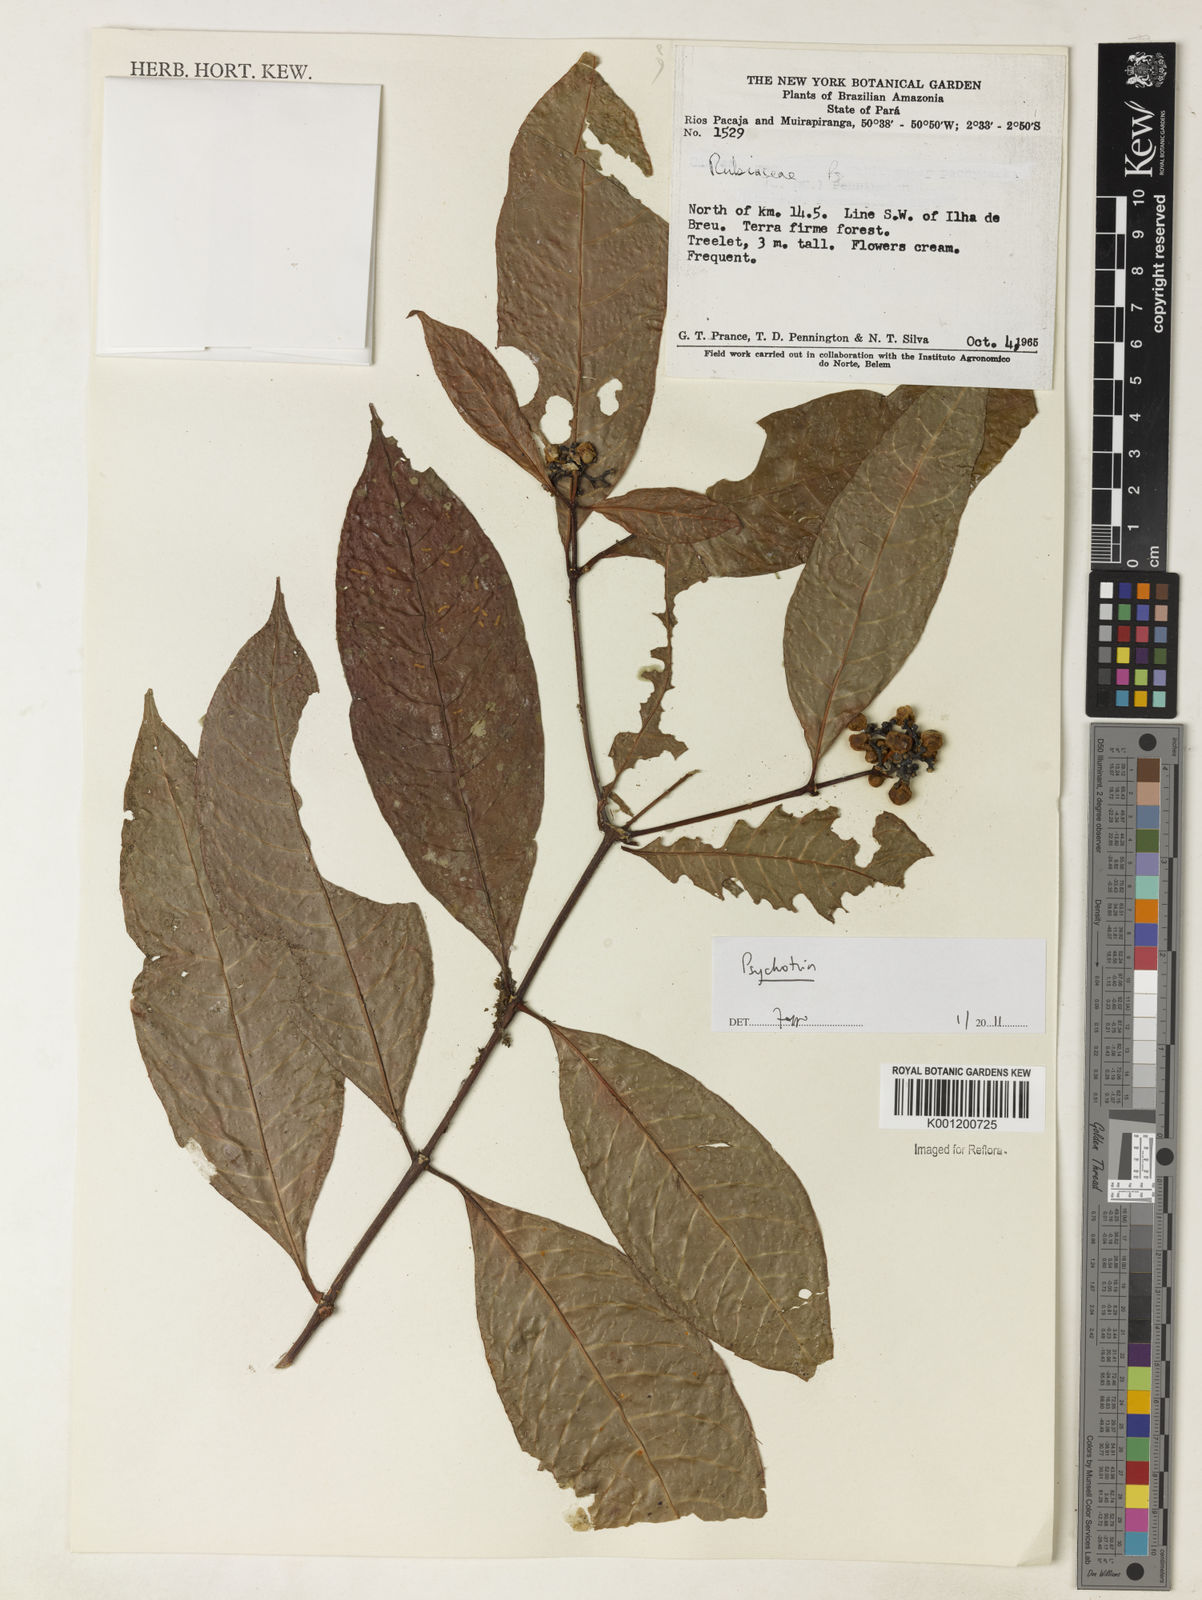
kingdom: Plantae
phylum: Tracheophyta
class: Magnoliopsida
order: Gentianales
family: Rubiaceae
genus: Psychotria
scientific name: Psychotria
